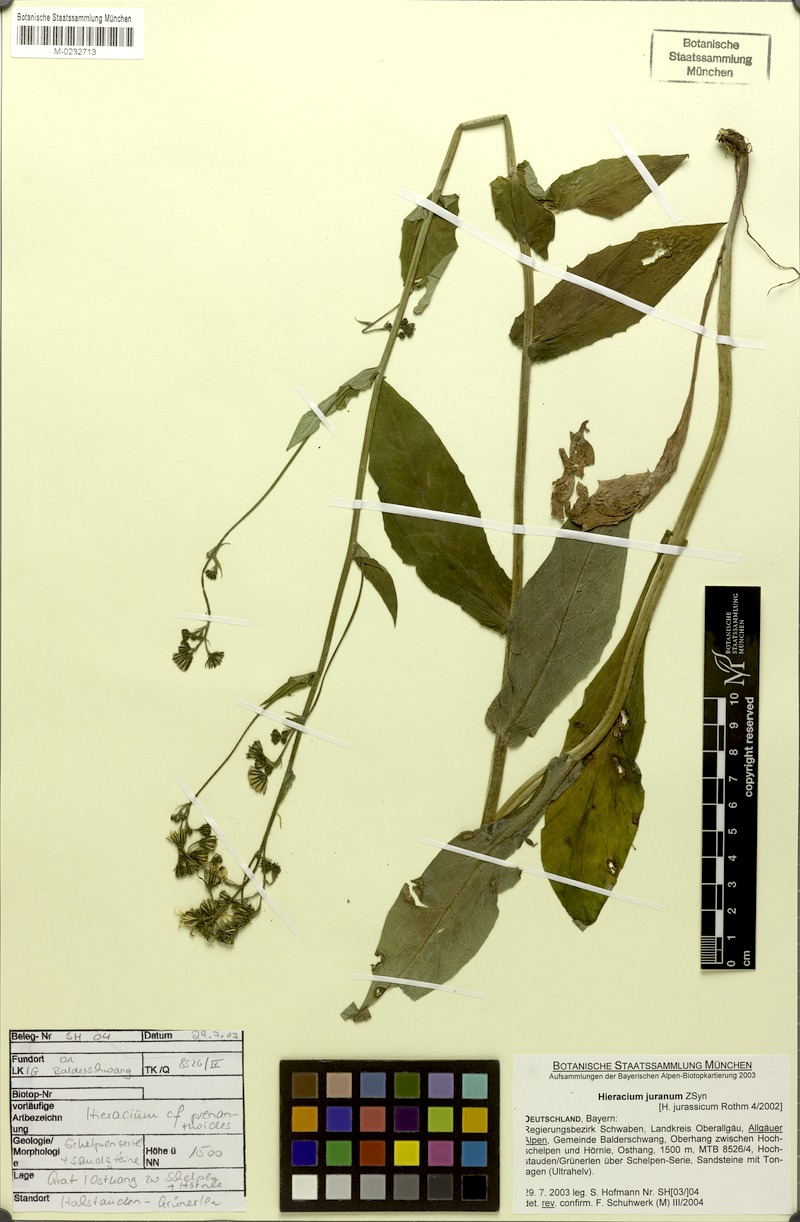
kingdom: Plantae
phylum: Tracheophyta
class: Magnoliopsida
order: Asterales
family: Asteraceae
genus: Hieracium
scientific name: Hieracium jurassicum
